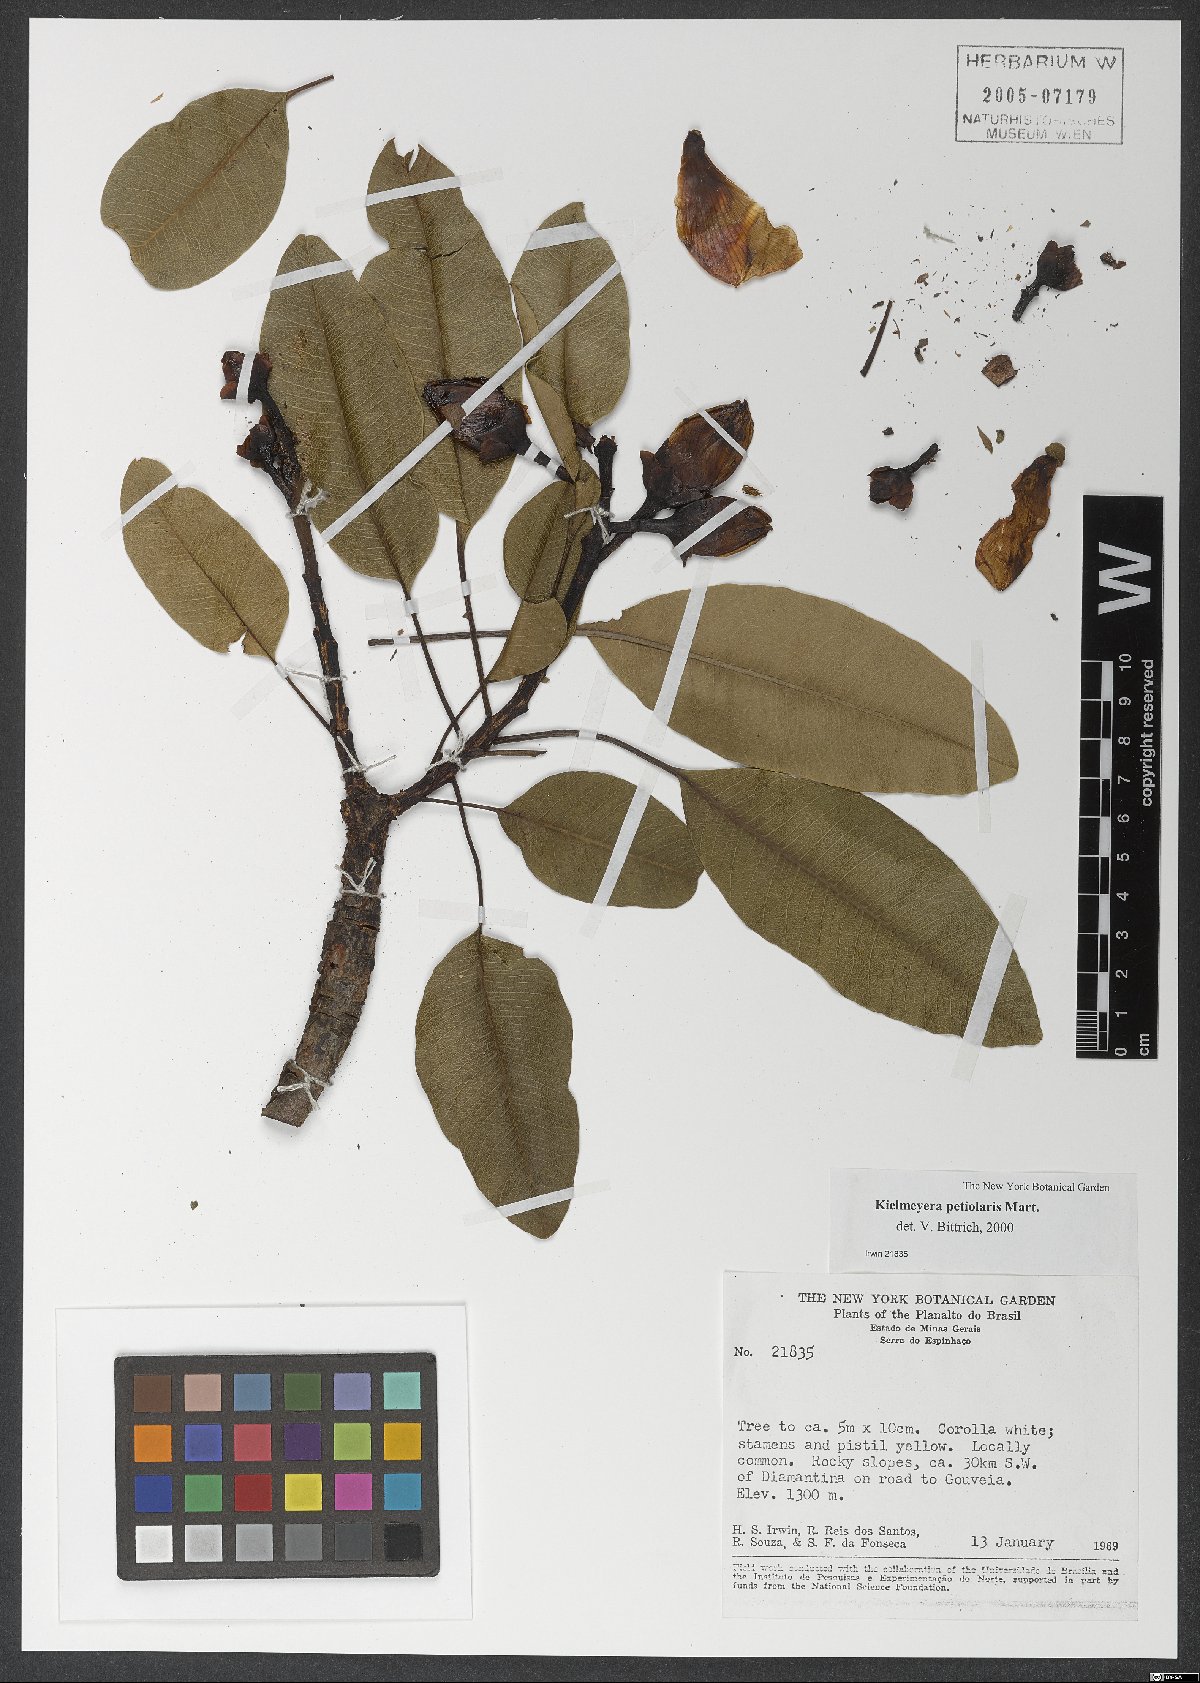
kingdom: Plantae
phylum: Tracheophyta
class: Magnoliopsida
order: Malpighiales
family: Calophyllaceae
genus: Kielmeyera
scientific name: Kielmeyera petiolaris
